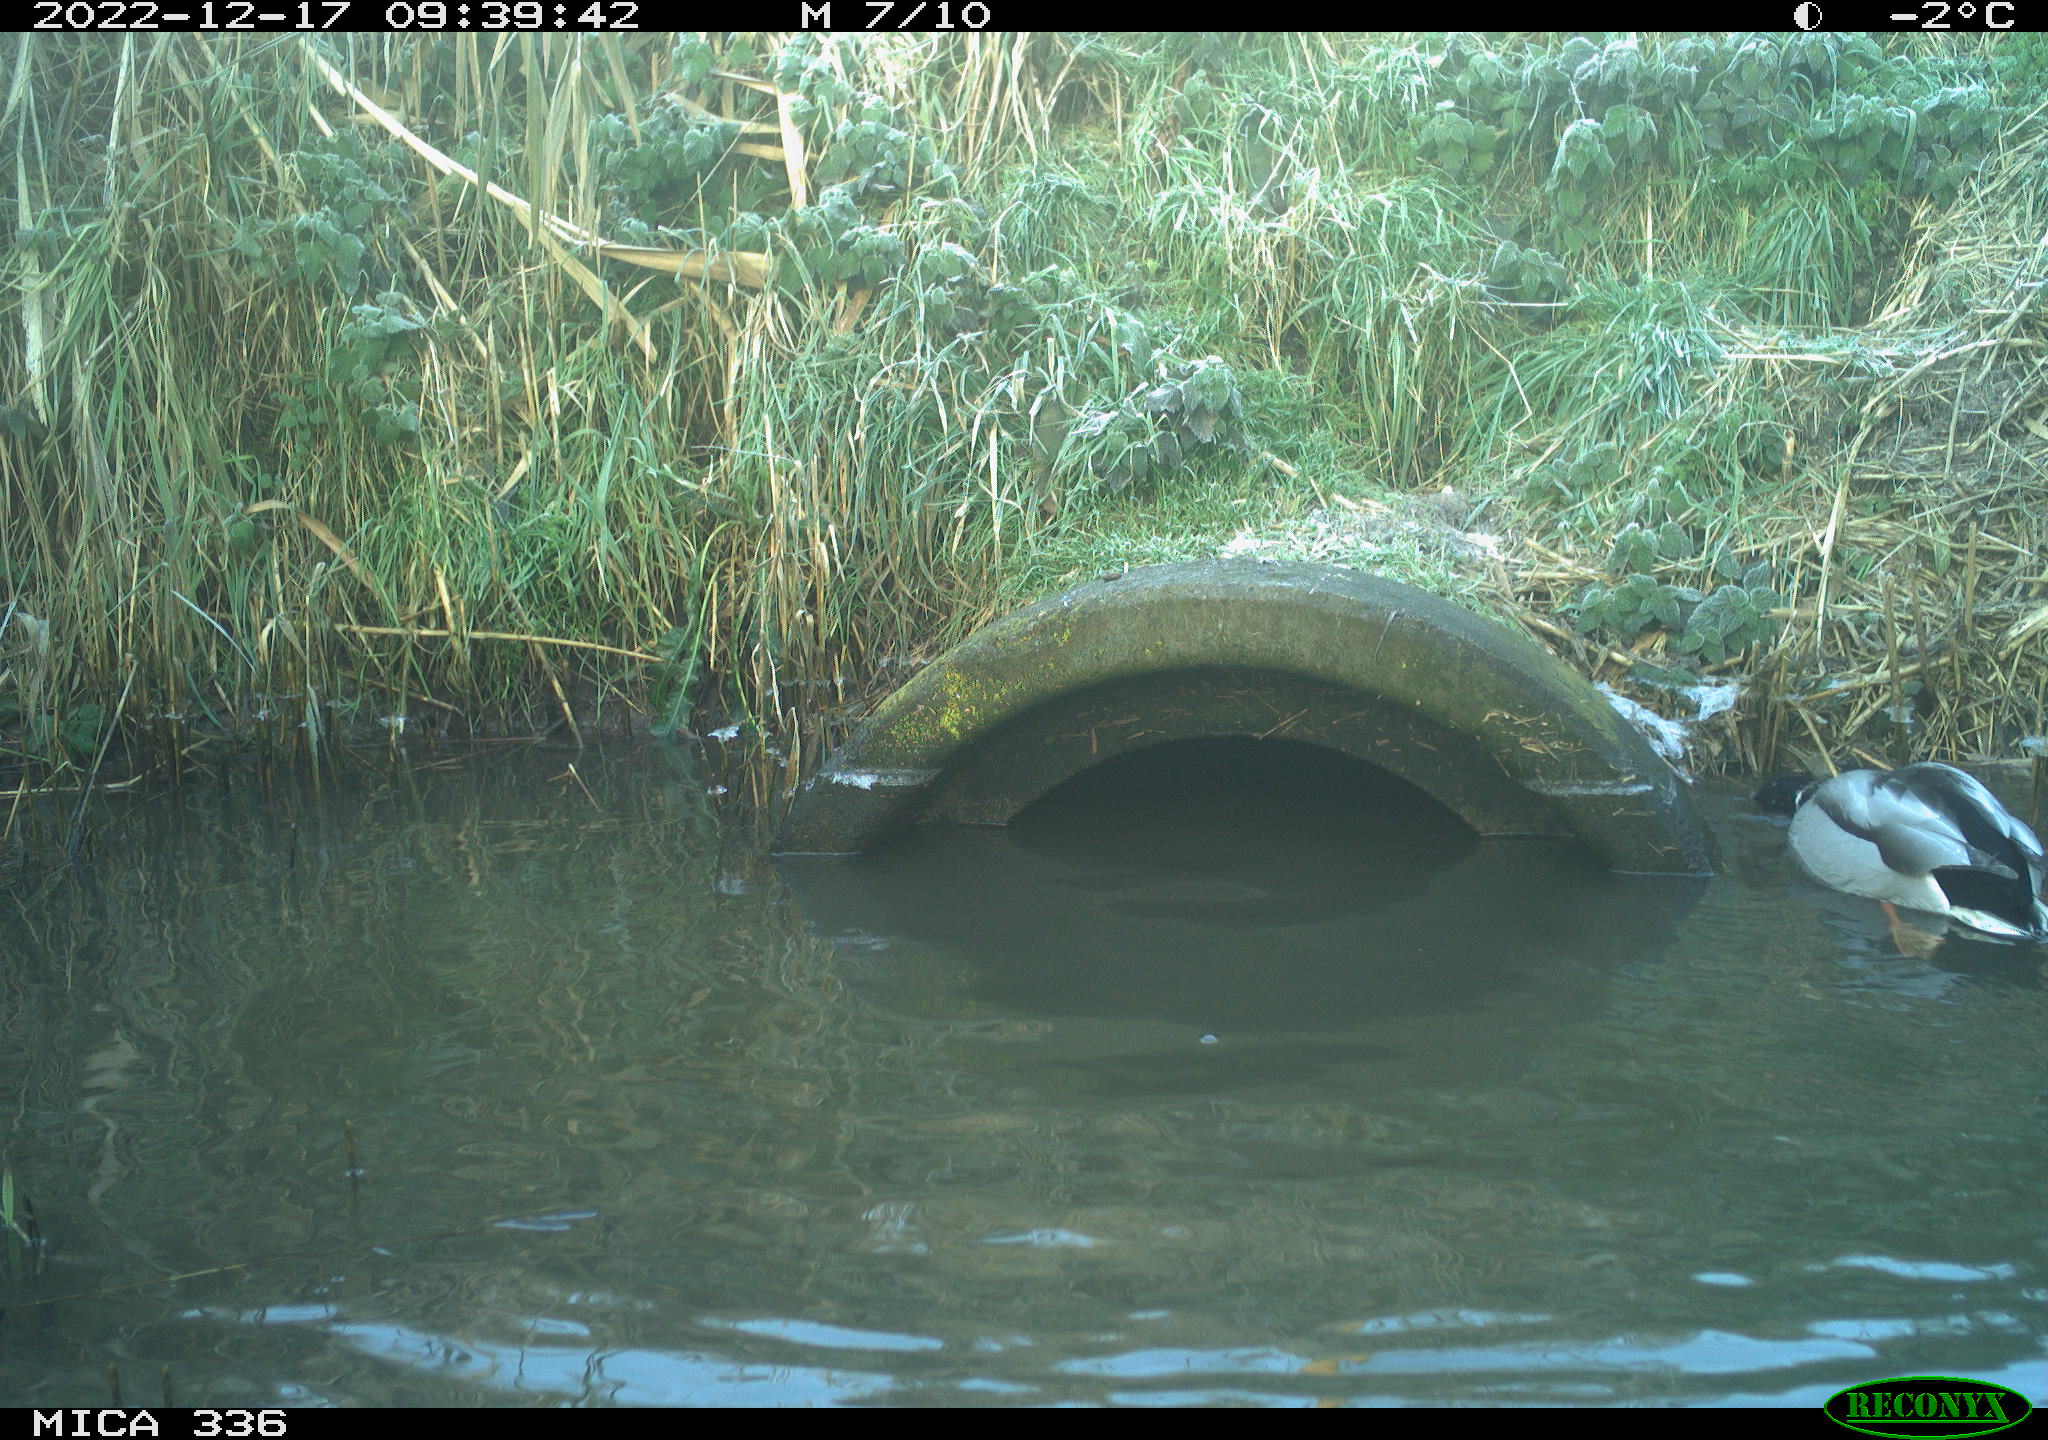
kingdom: Animalia
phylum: Chordata
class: Aves
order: Anseriformes
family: Anatidae
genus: Anas
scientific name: Anas
